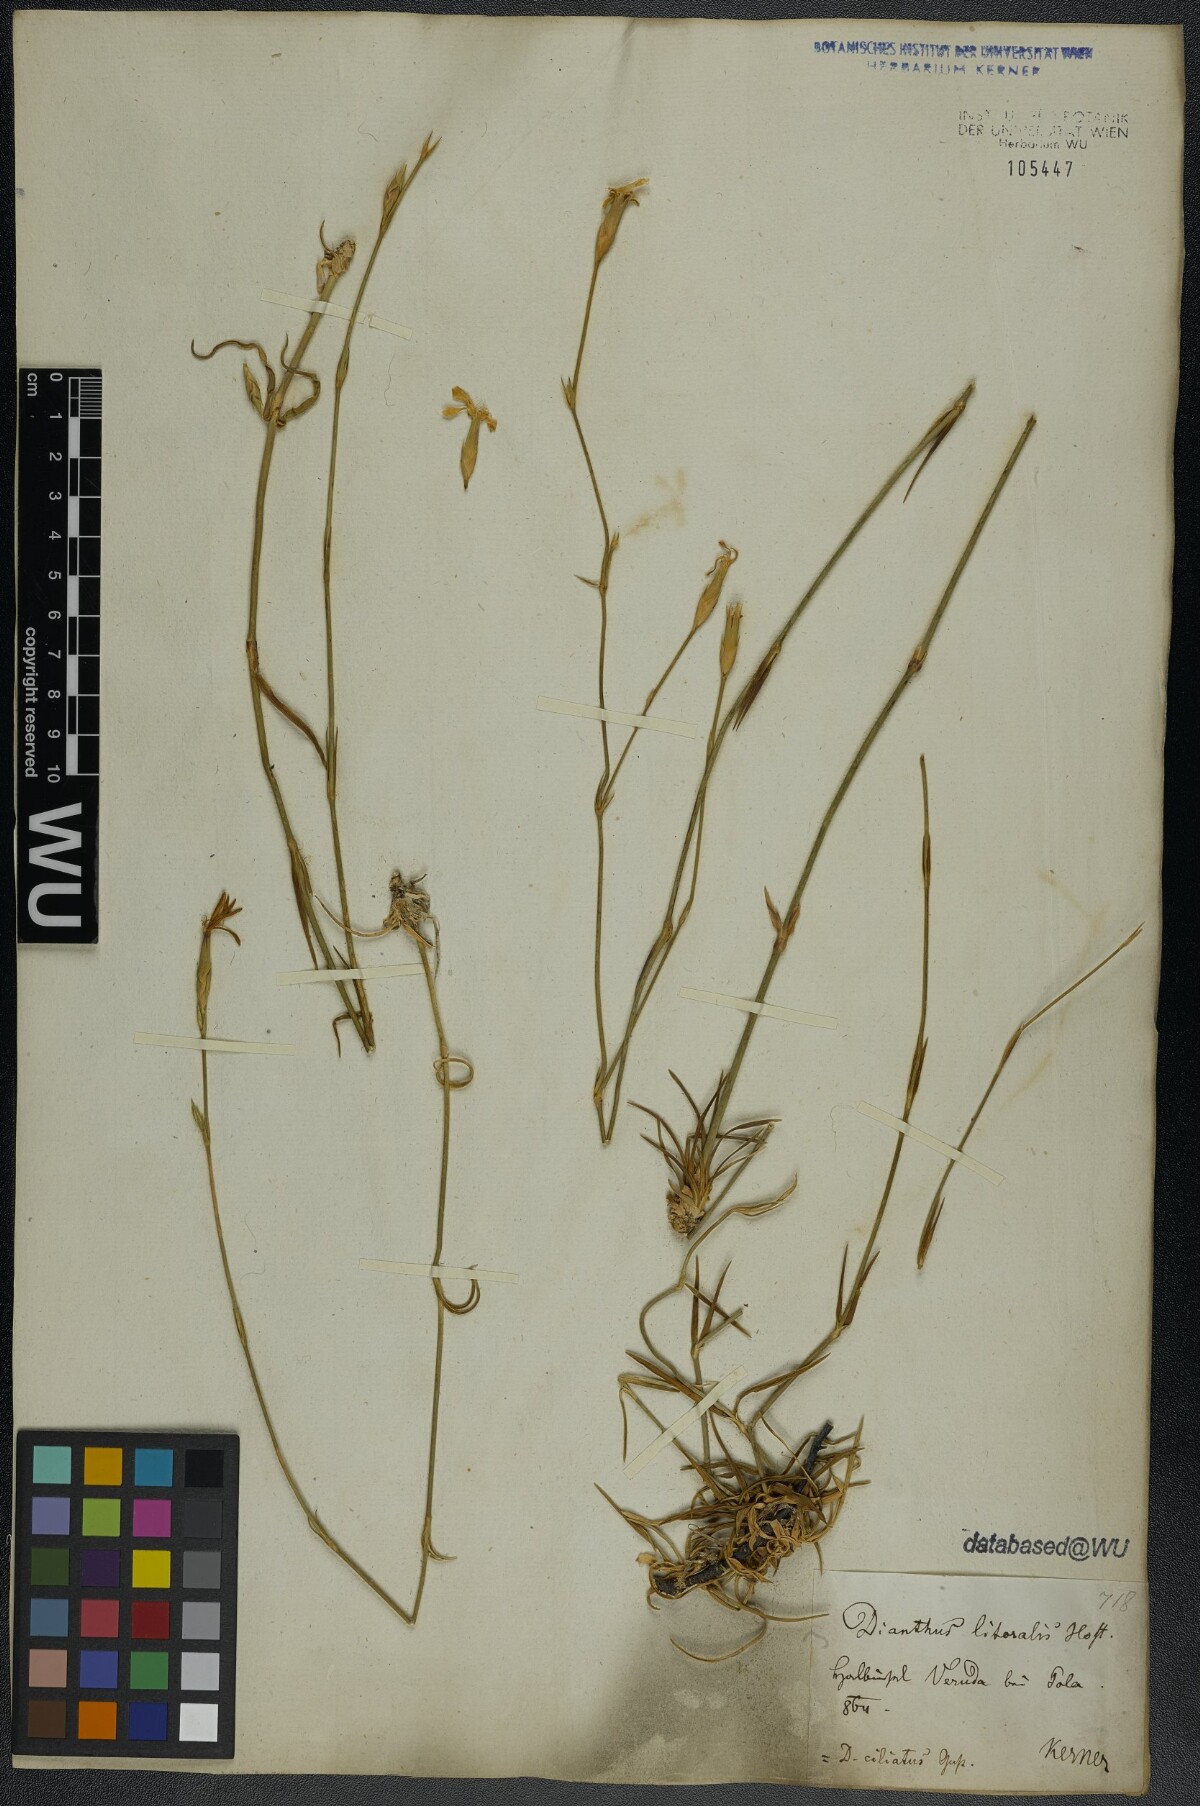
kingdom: Plantae
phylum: Tracheophyta
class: Magnoliopsida
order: Caryophyllales
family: Caryophyllaceae
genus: Dianthus
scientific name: Dianthus ciliatus
